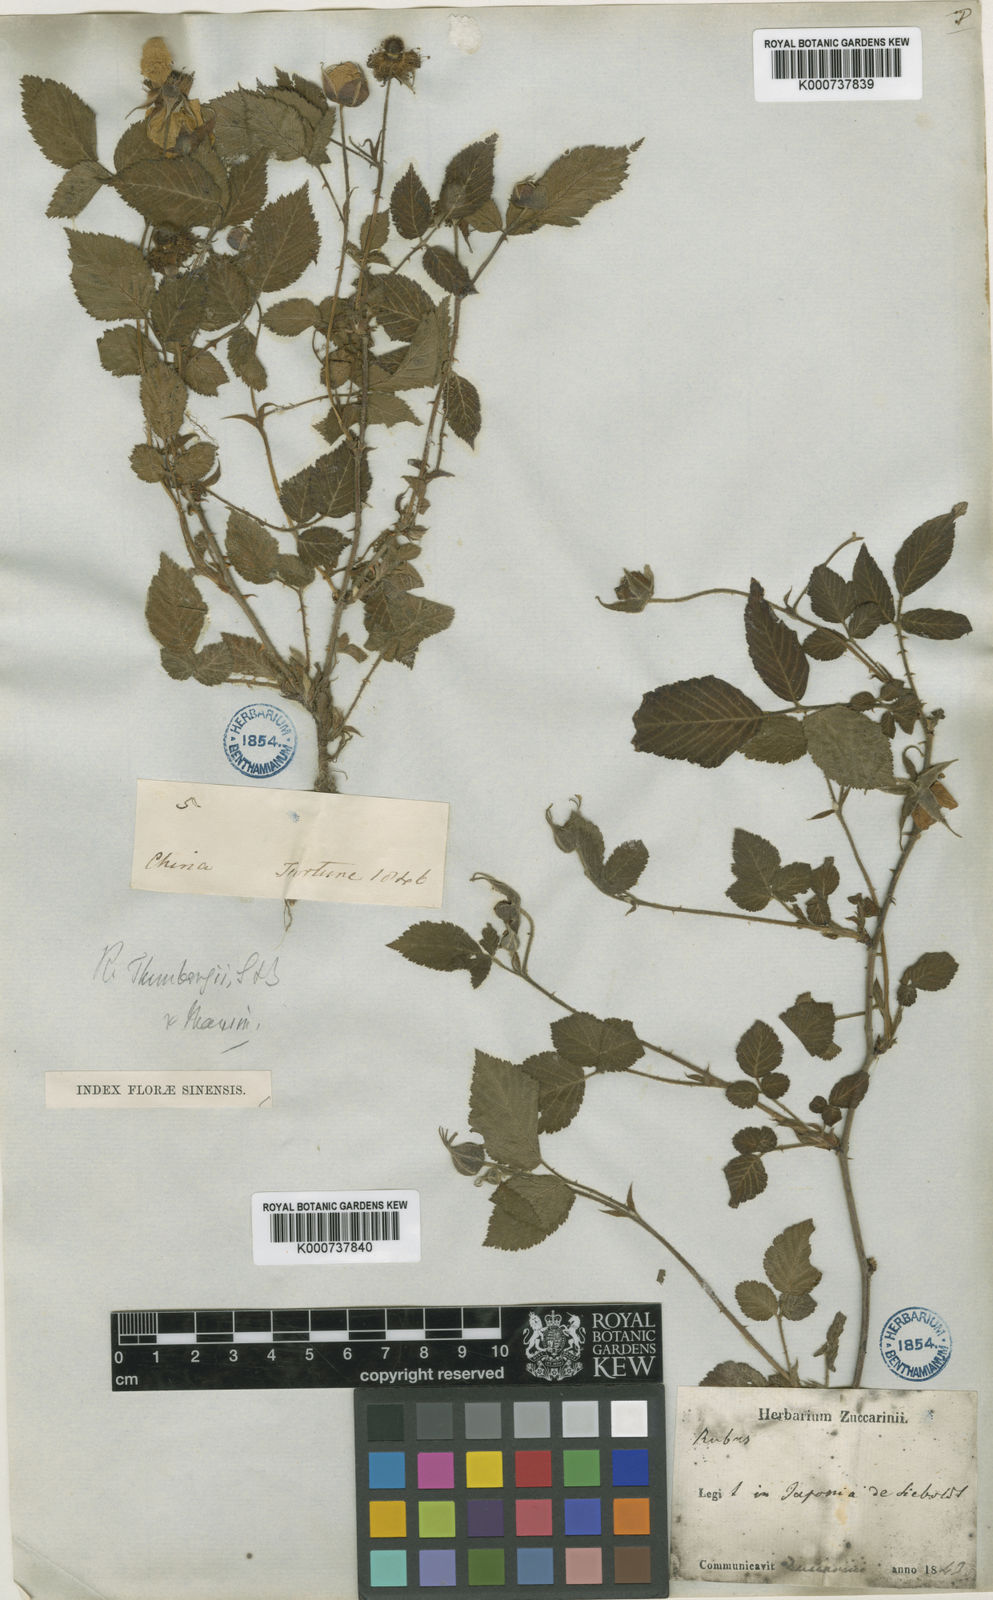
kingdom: Plantae
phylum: Tracheophyta
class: Magnoliopsida
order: Rosales
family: Rosaceae
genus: Rubus
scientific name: Rubus hirsutus
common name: Hirsute raspberry
